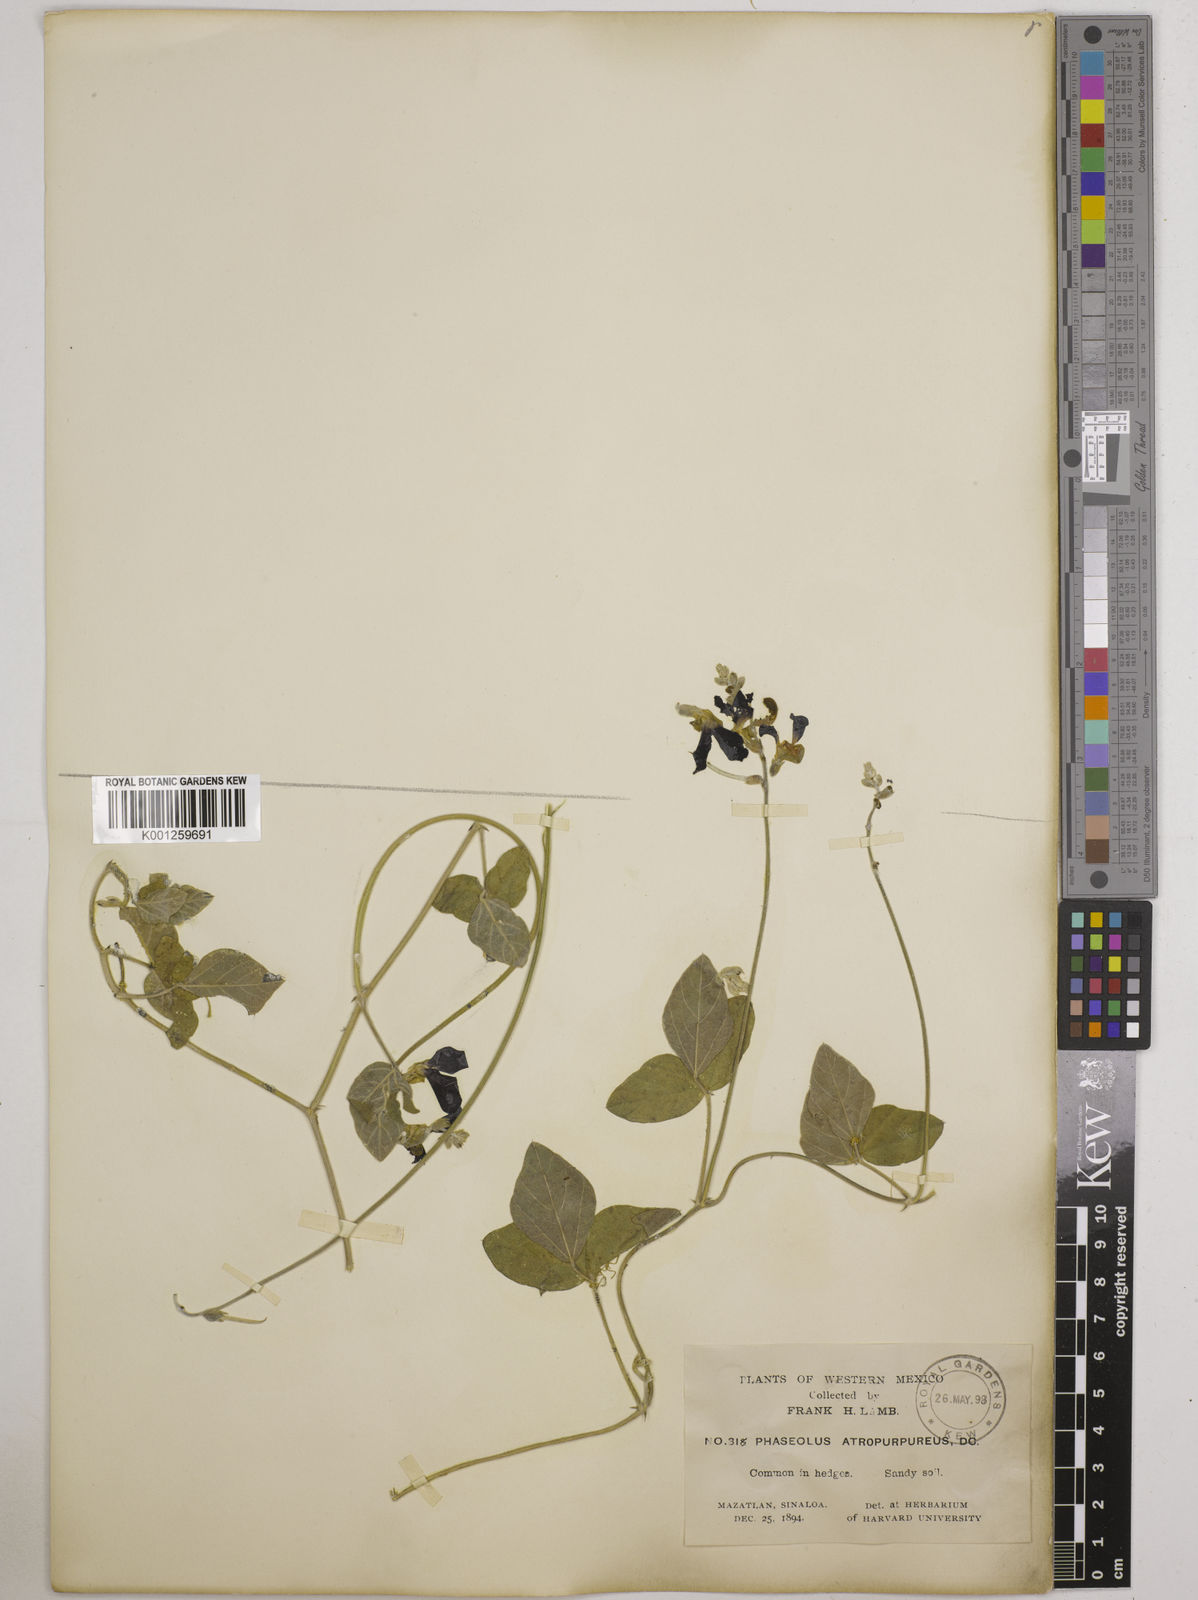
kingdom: Plantae
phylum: Tracheophyta
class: Magnoliopsida
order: Fabales
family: Fabaceae
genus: Macroptilium
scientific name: Macroptilium atropurpureum
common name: Purple bushbean
